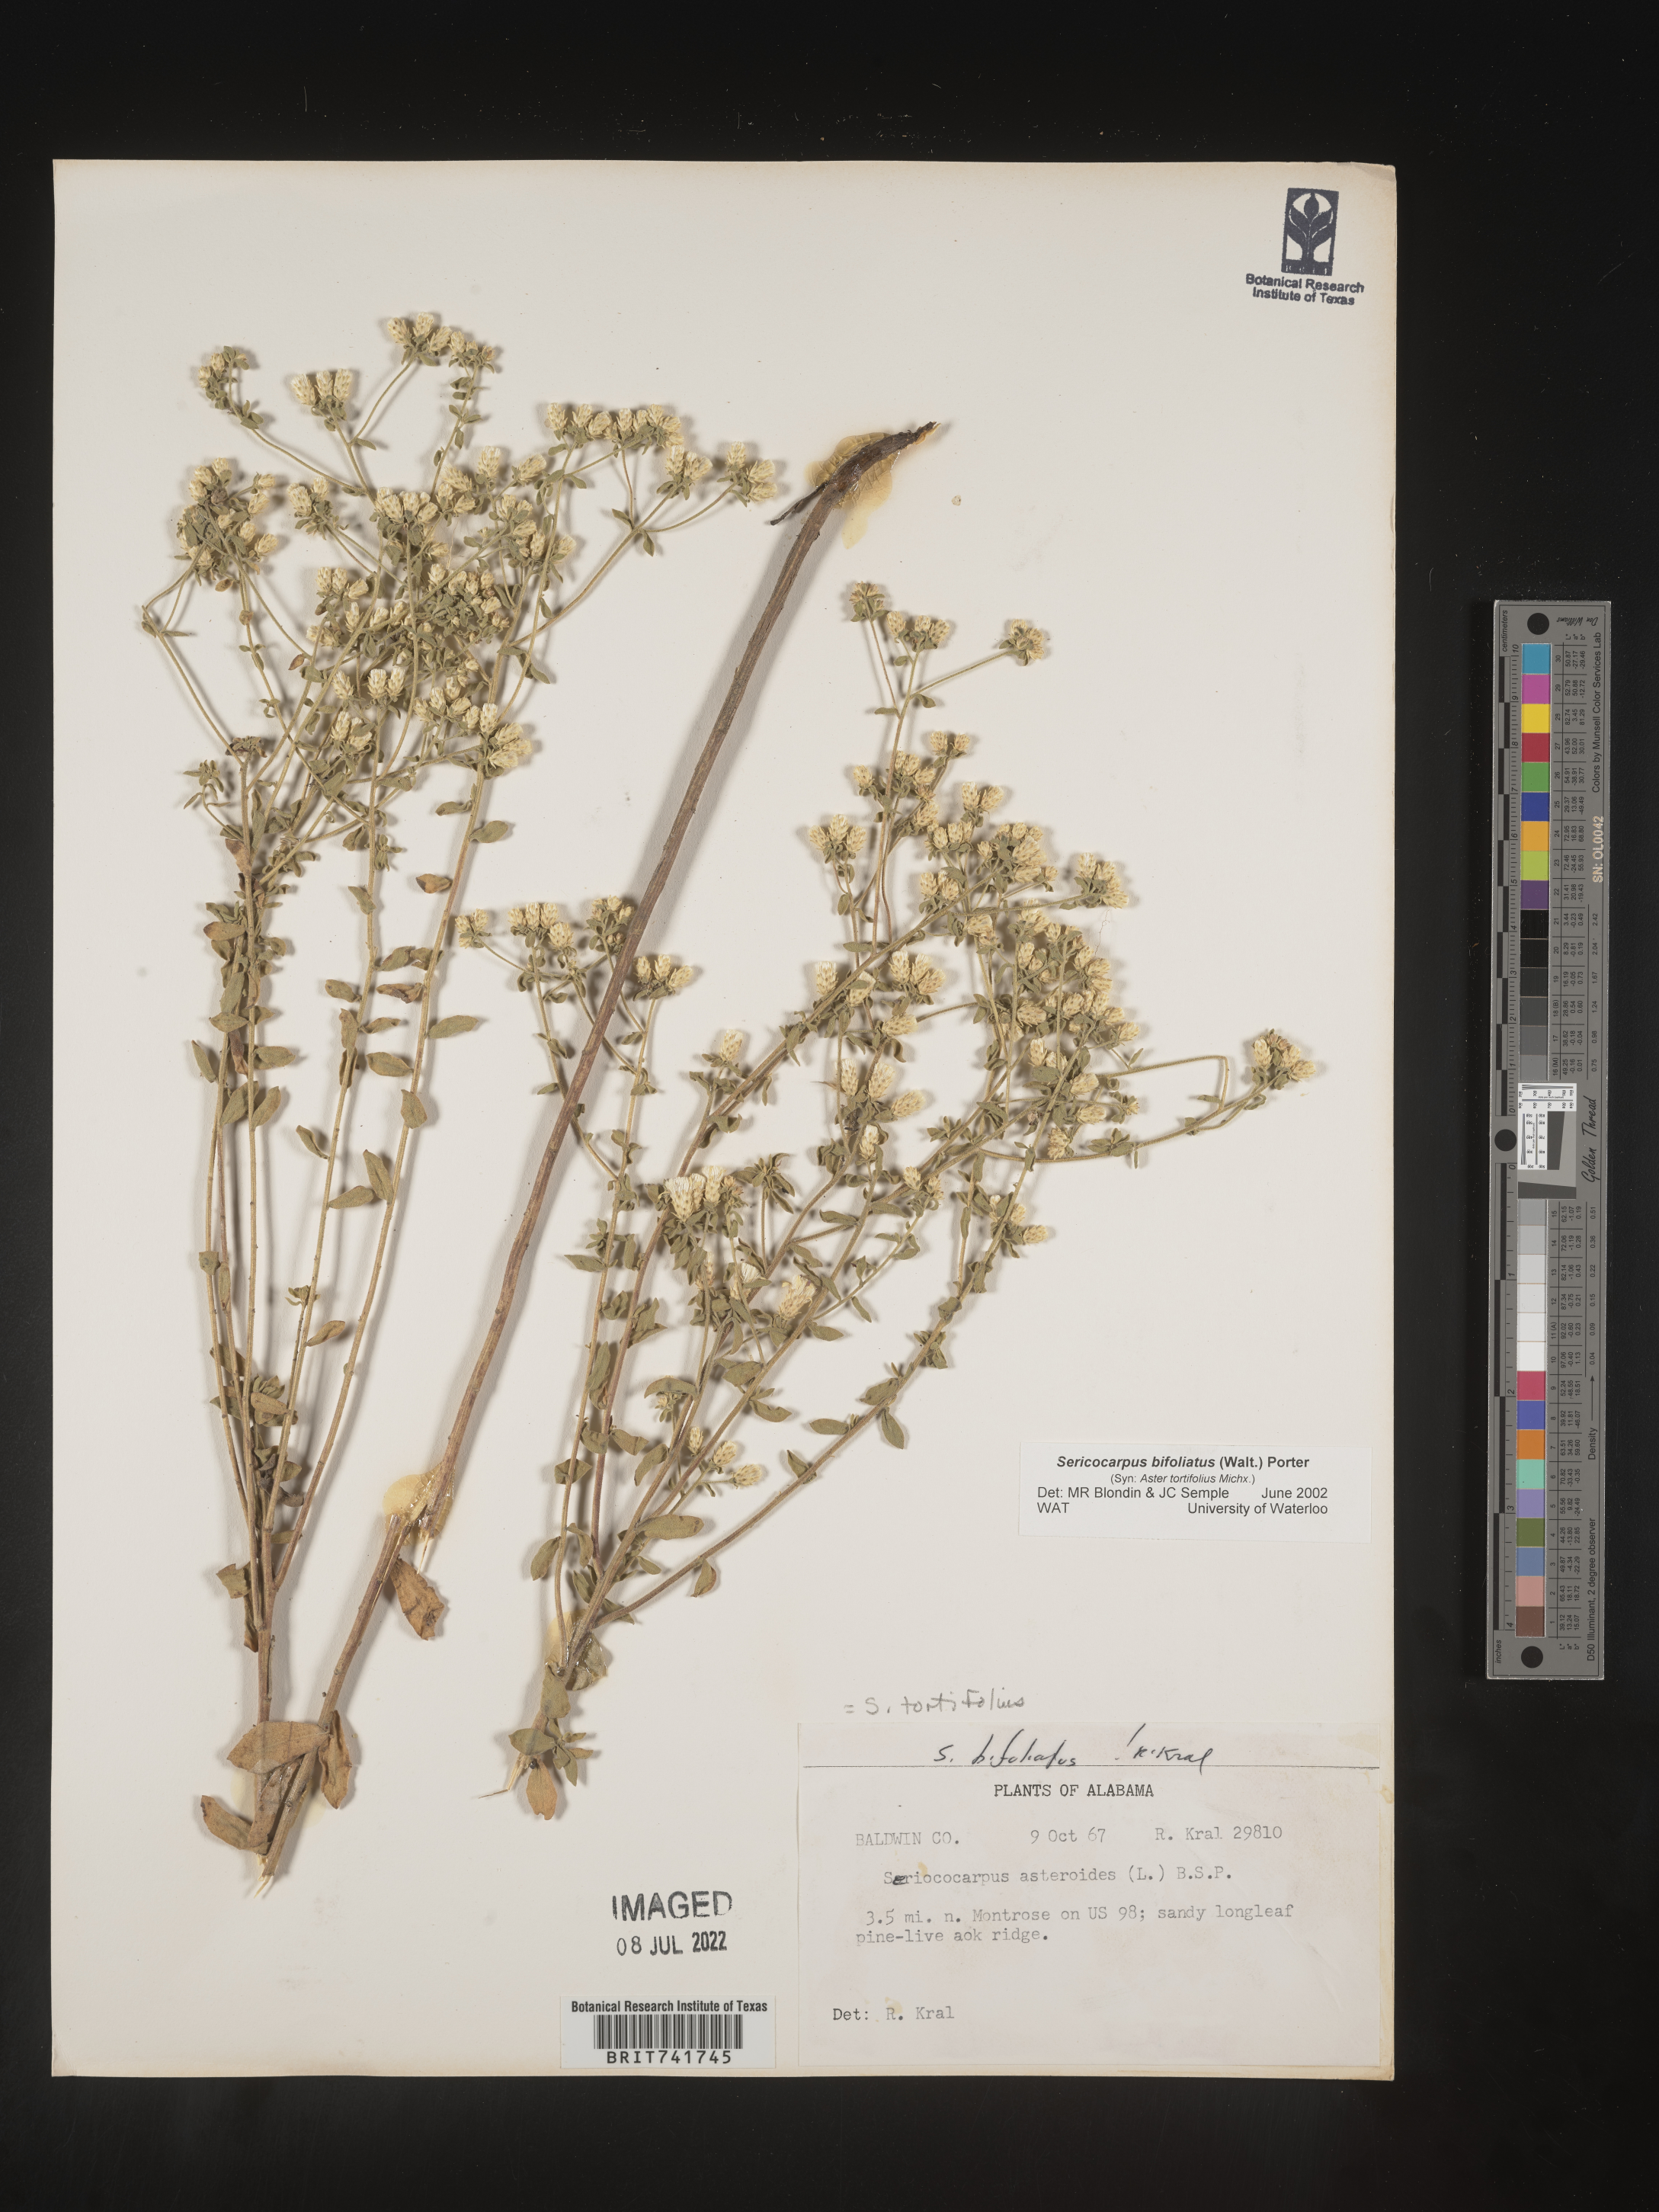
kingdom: Plantae
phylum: Tracheophyta
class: Magnoliopsida
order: Asterales
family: Asteraceae
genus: Sericocarpus
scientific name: Sericocarpus tortifolius
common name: Dixie aster
